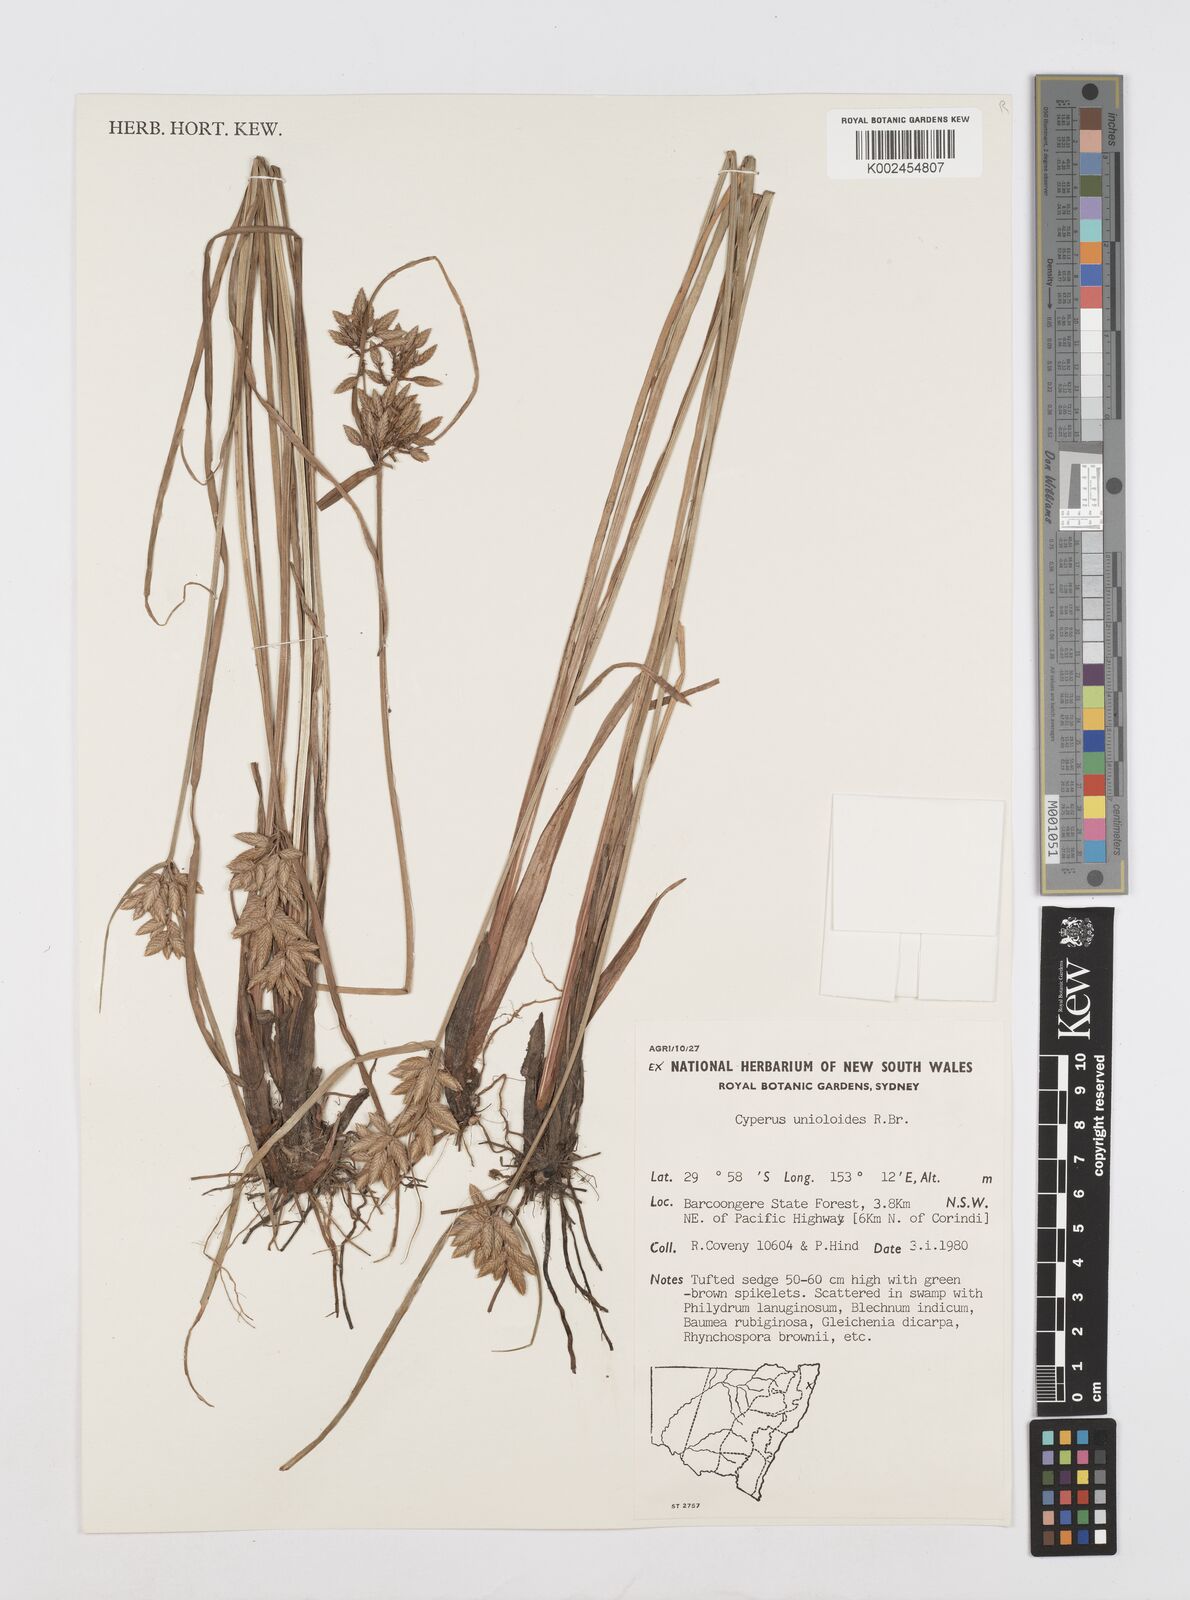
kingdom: Plantae
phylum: Tracheophyta
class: Liliopsida
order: Poales
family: Cyperaceae
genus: Cyperus
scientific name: Cyperus unioloides
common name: Uniola flatsedge
